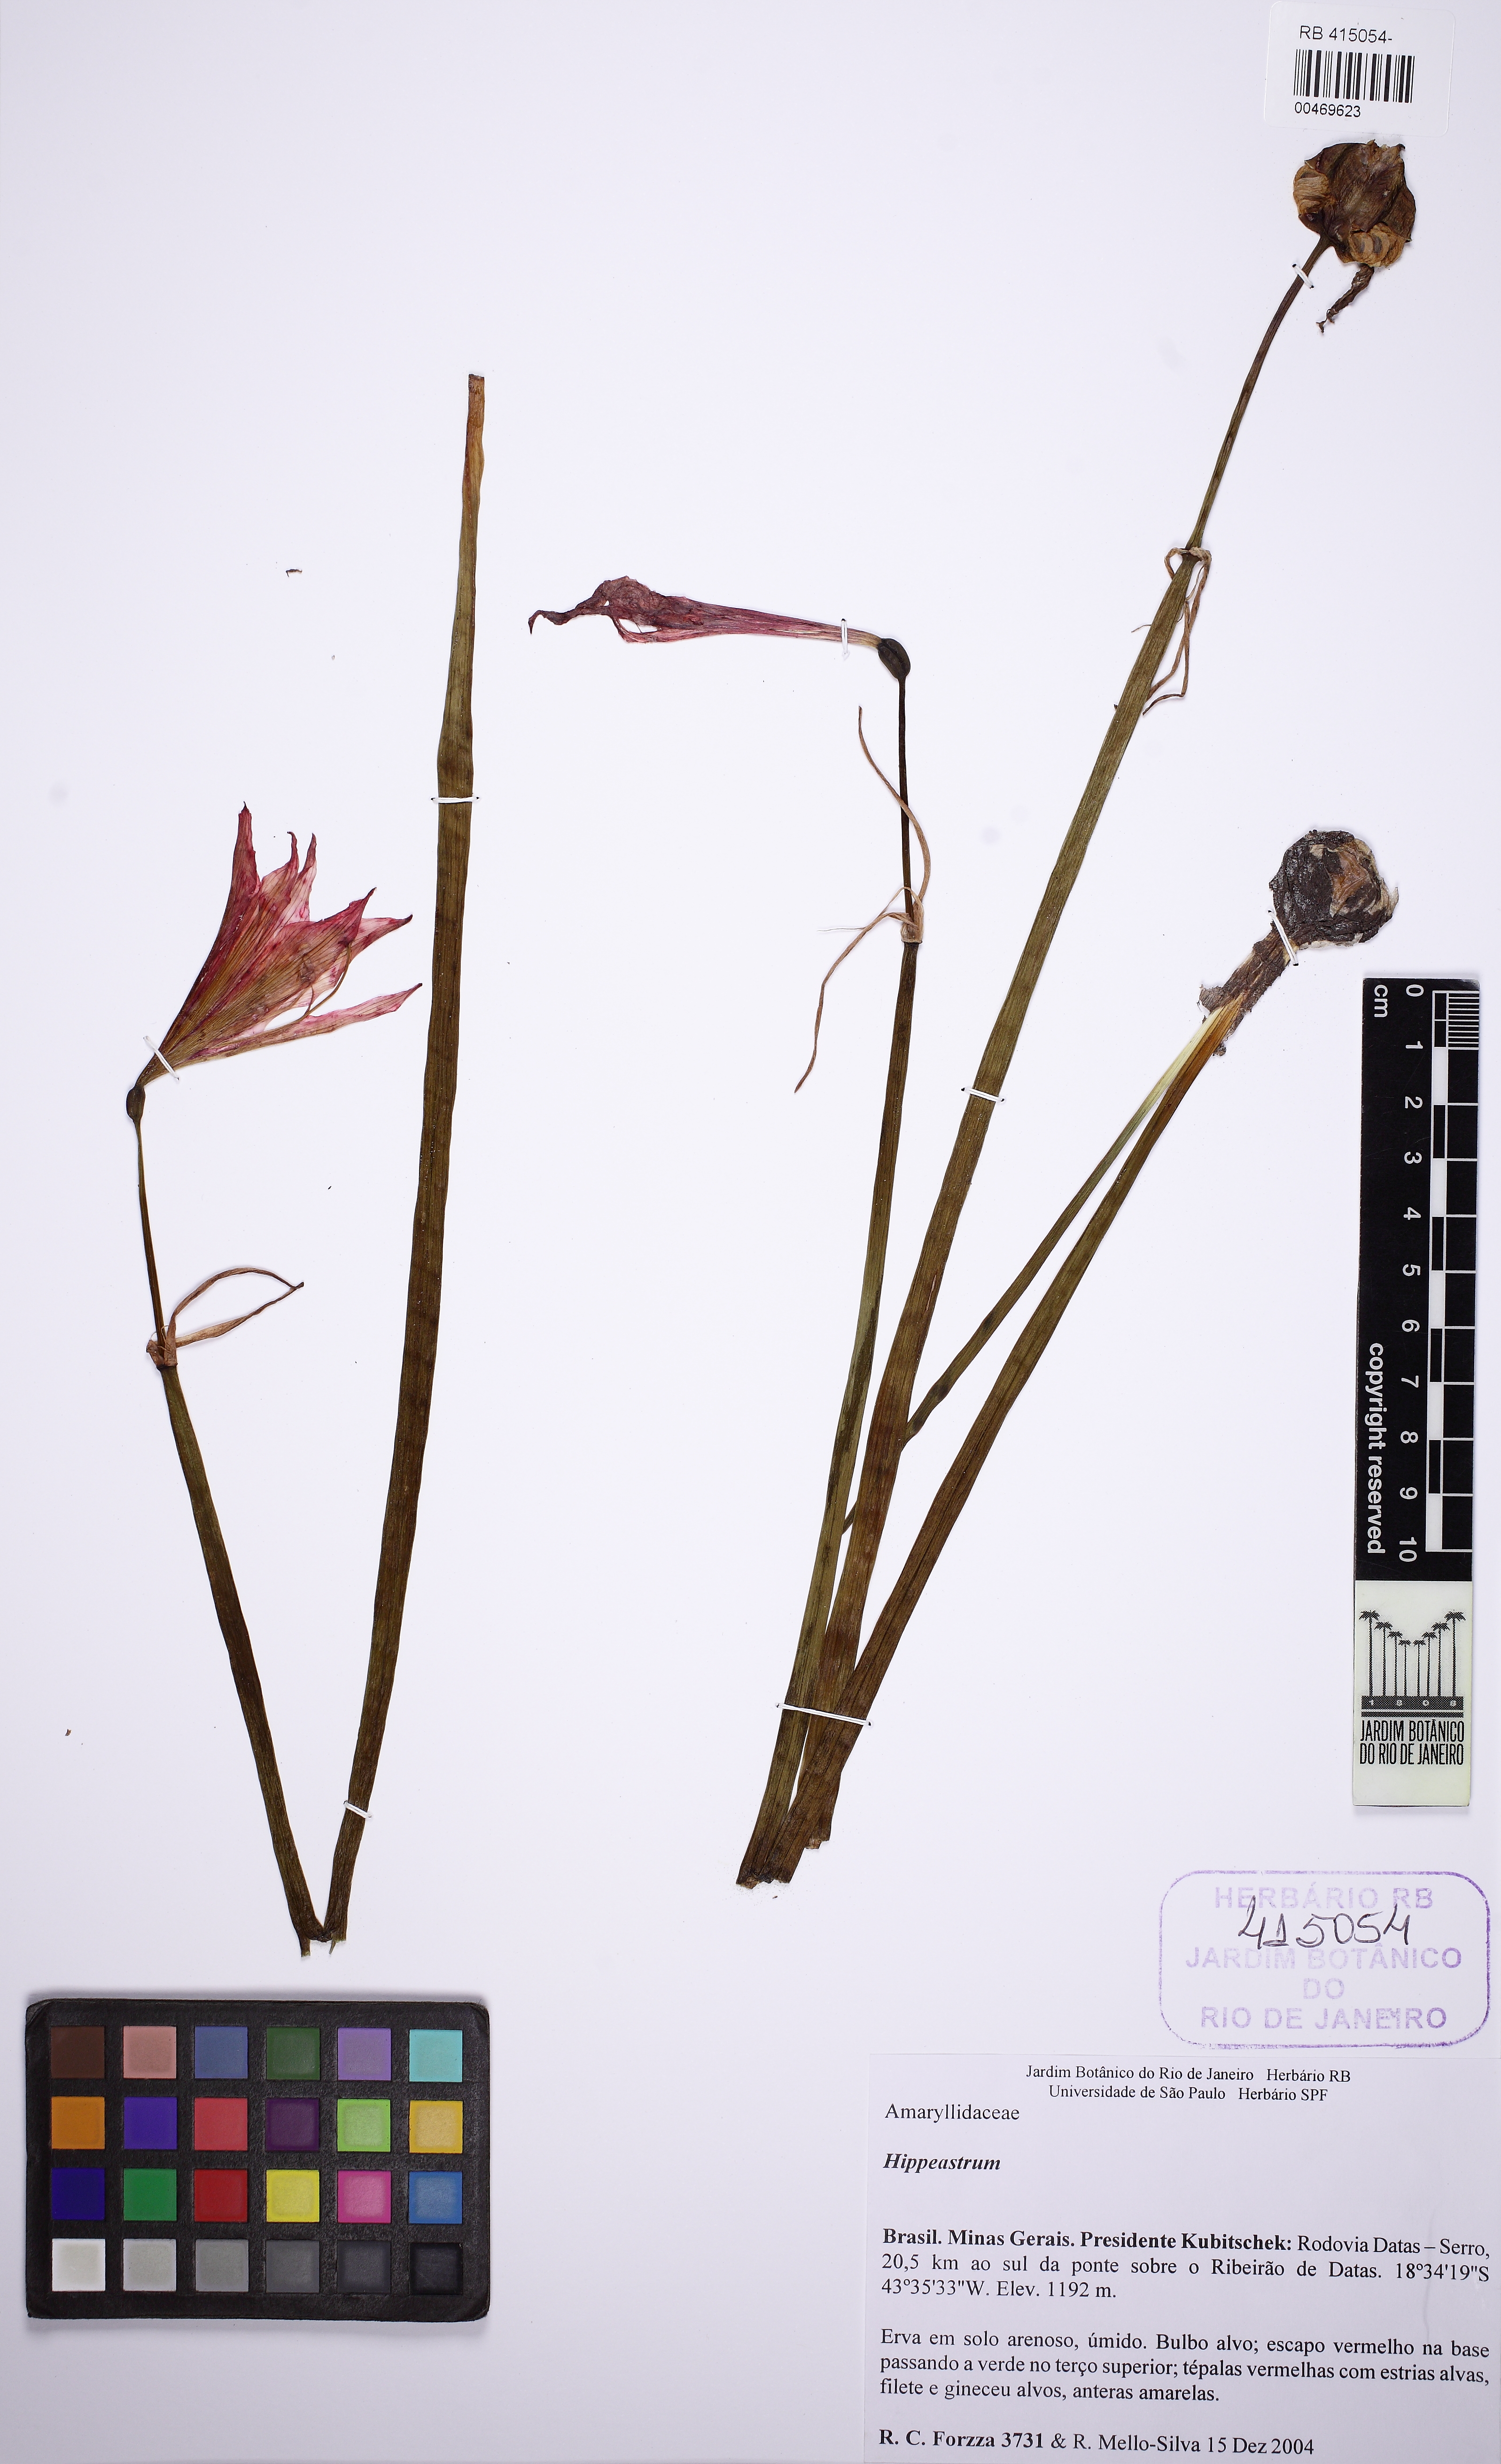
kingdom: Plantae
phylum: Tracheophyta
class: Liliopsida
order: Asparagales
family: Amaryllidaceae
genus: Hippeastrum
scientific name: Hippeastrum cipoanum
